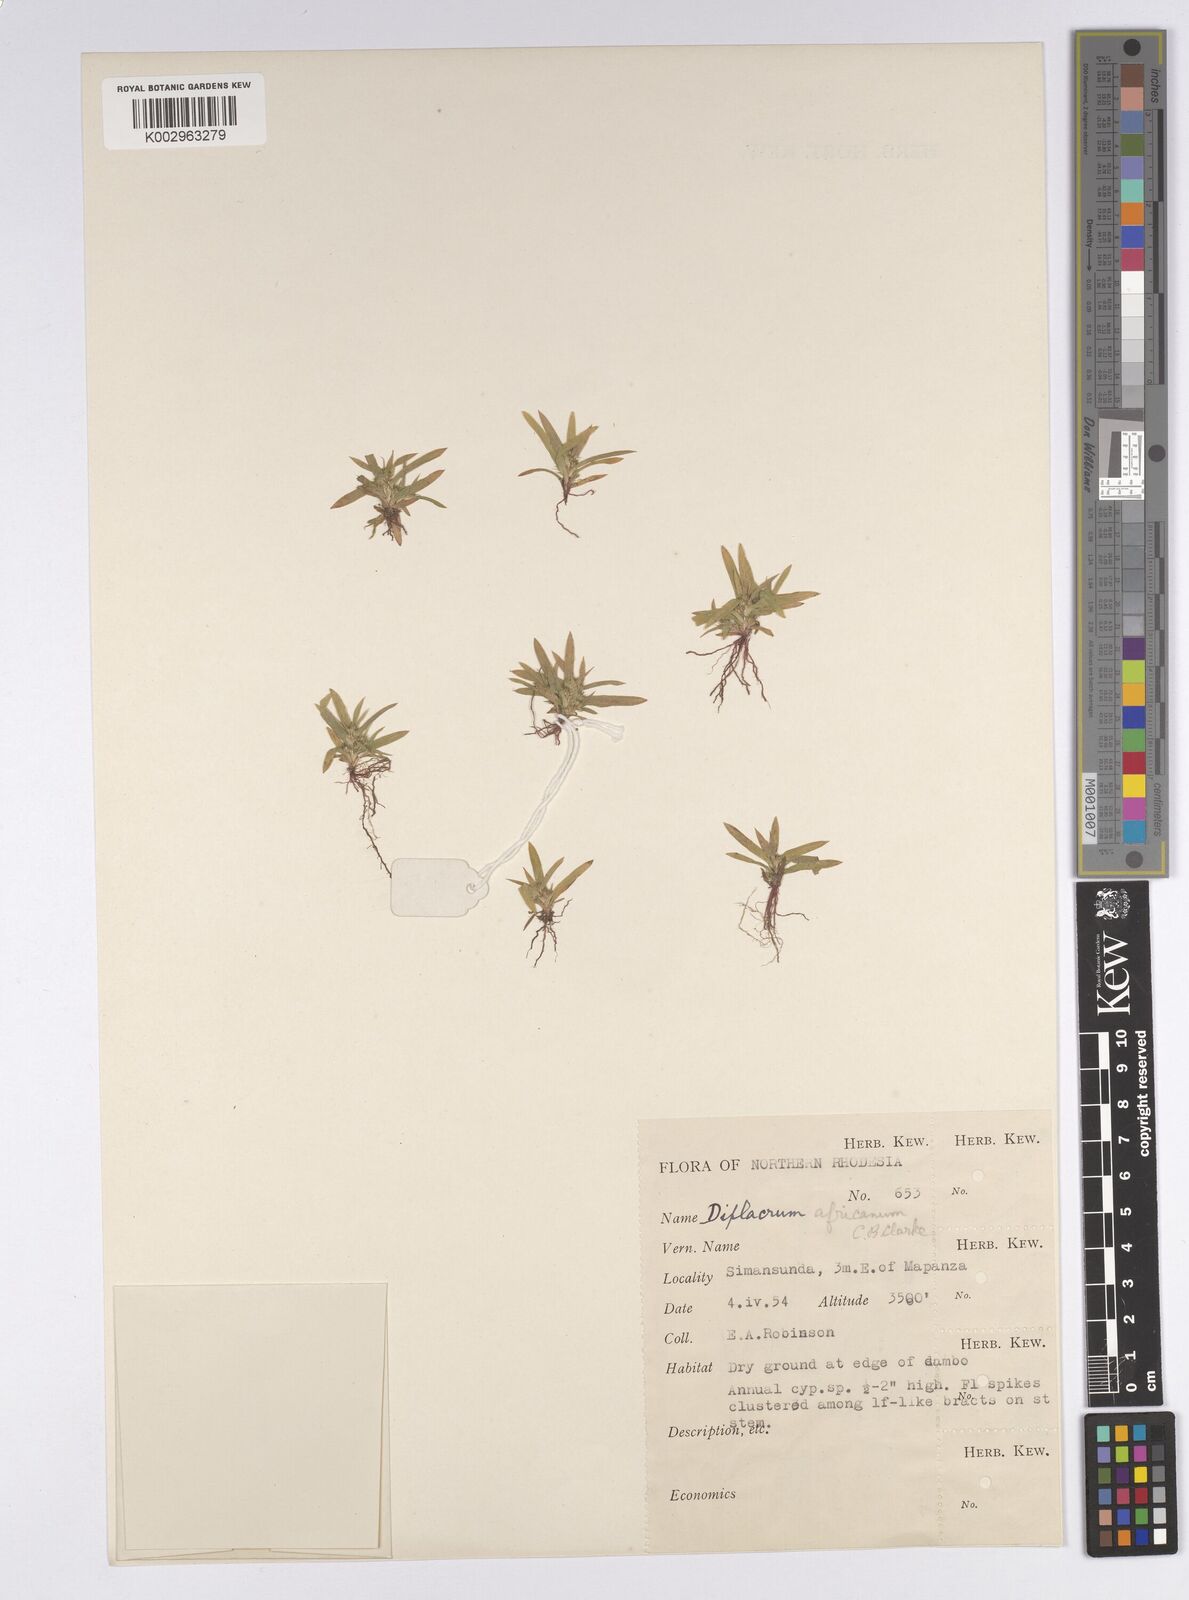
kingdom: Plantae
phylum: Tracheophyta
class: Liliopsida
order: Poales
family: Cyperaceae
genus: Diplacrum
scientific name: Diplacrum africanum
